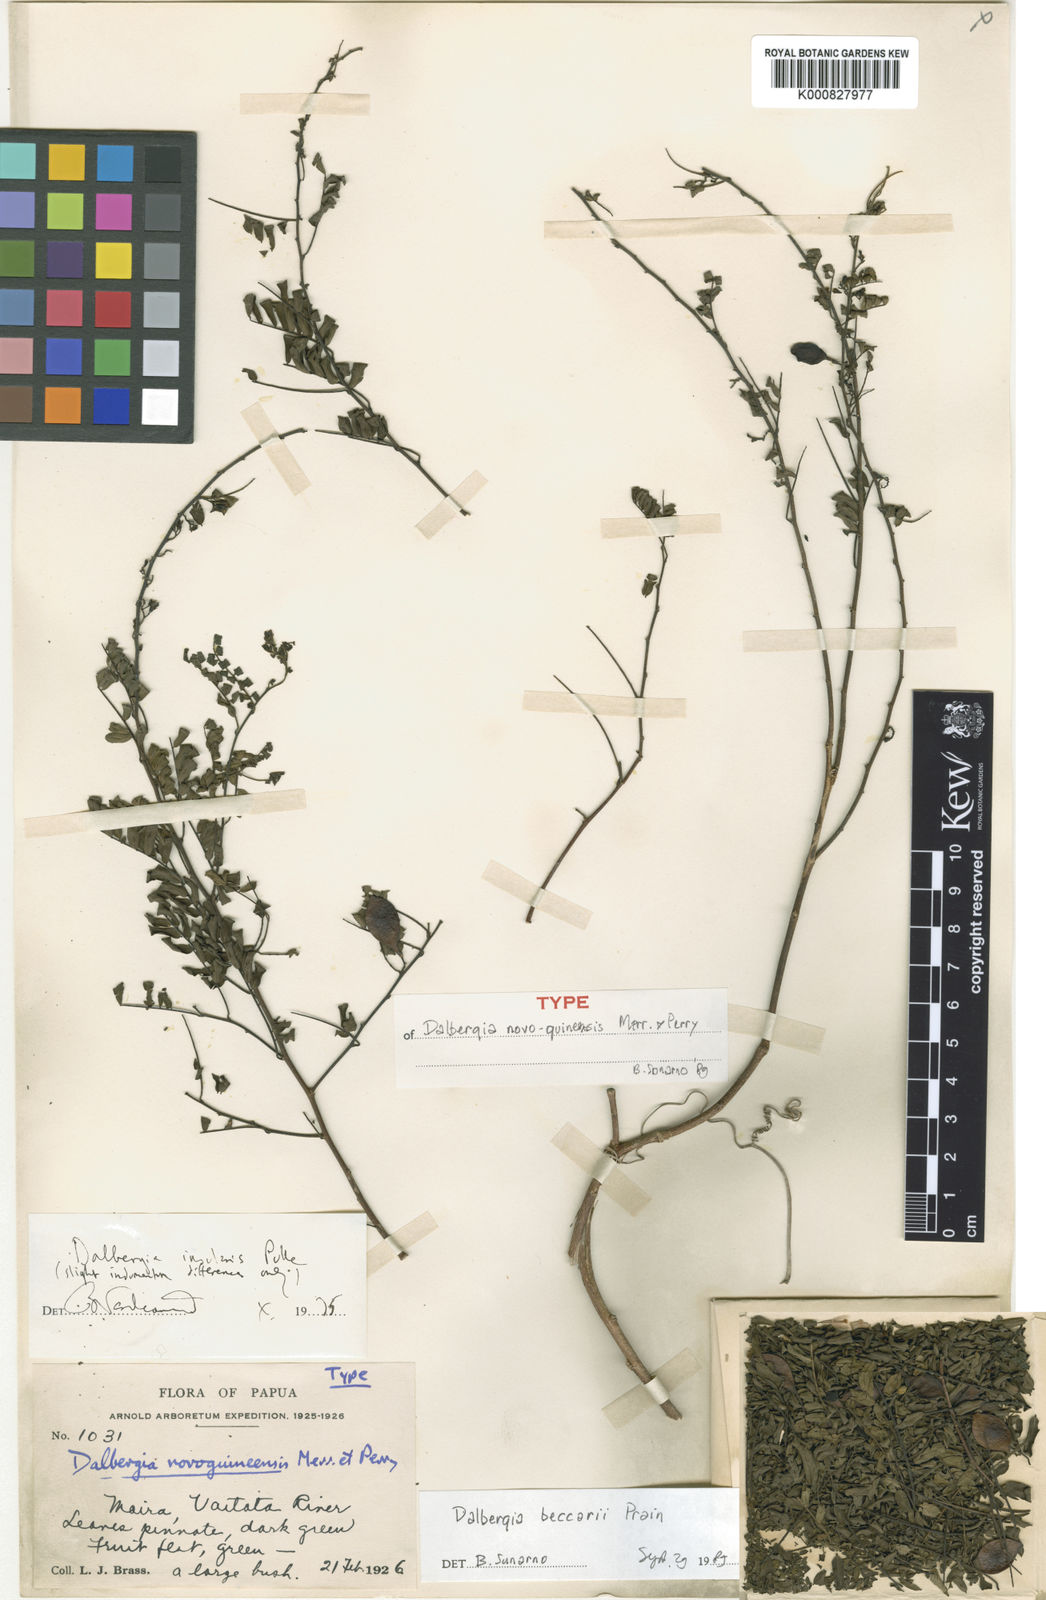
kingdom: Plantae
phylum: Tracheophyta
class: Magnoliopsida
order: Fabales
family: Fabaceae
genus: Dalbergia
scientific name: Dalbergia beccarii
